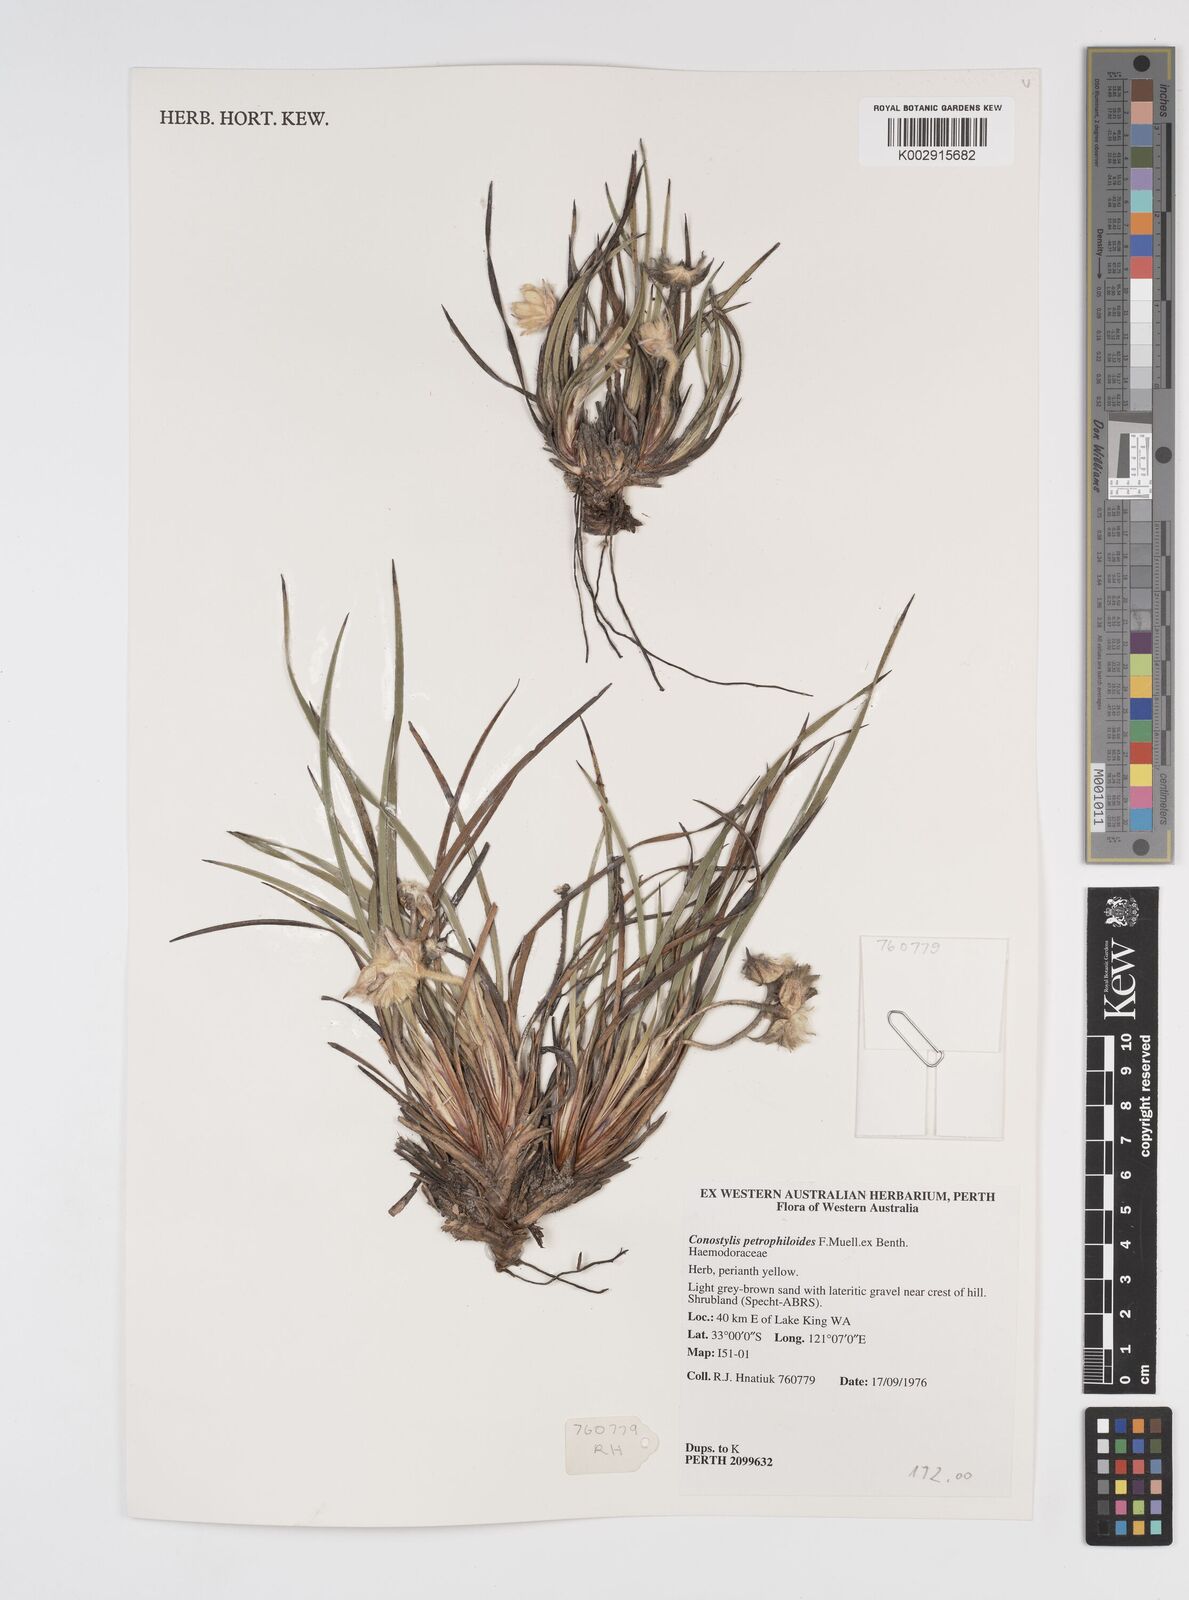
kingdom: Plantae
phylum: Tracheophyta
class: Liliopsida
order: Commelinales
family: Haemodoraceae
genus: Conostylis
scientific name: Conostylis petrophiloides
